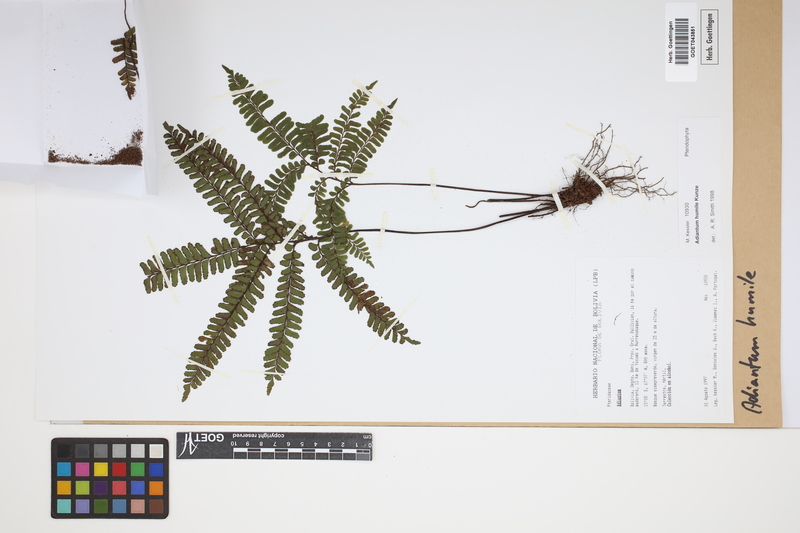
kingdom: Plantae
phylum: Tracheophyta
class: Polypodiopsida
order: Polypodiales
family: Pteridaceae
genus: Adiantum
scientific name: Adiantum humile
